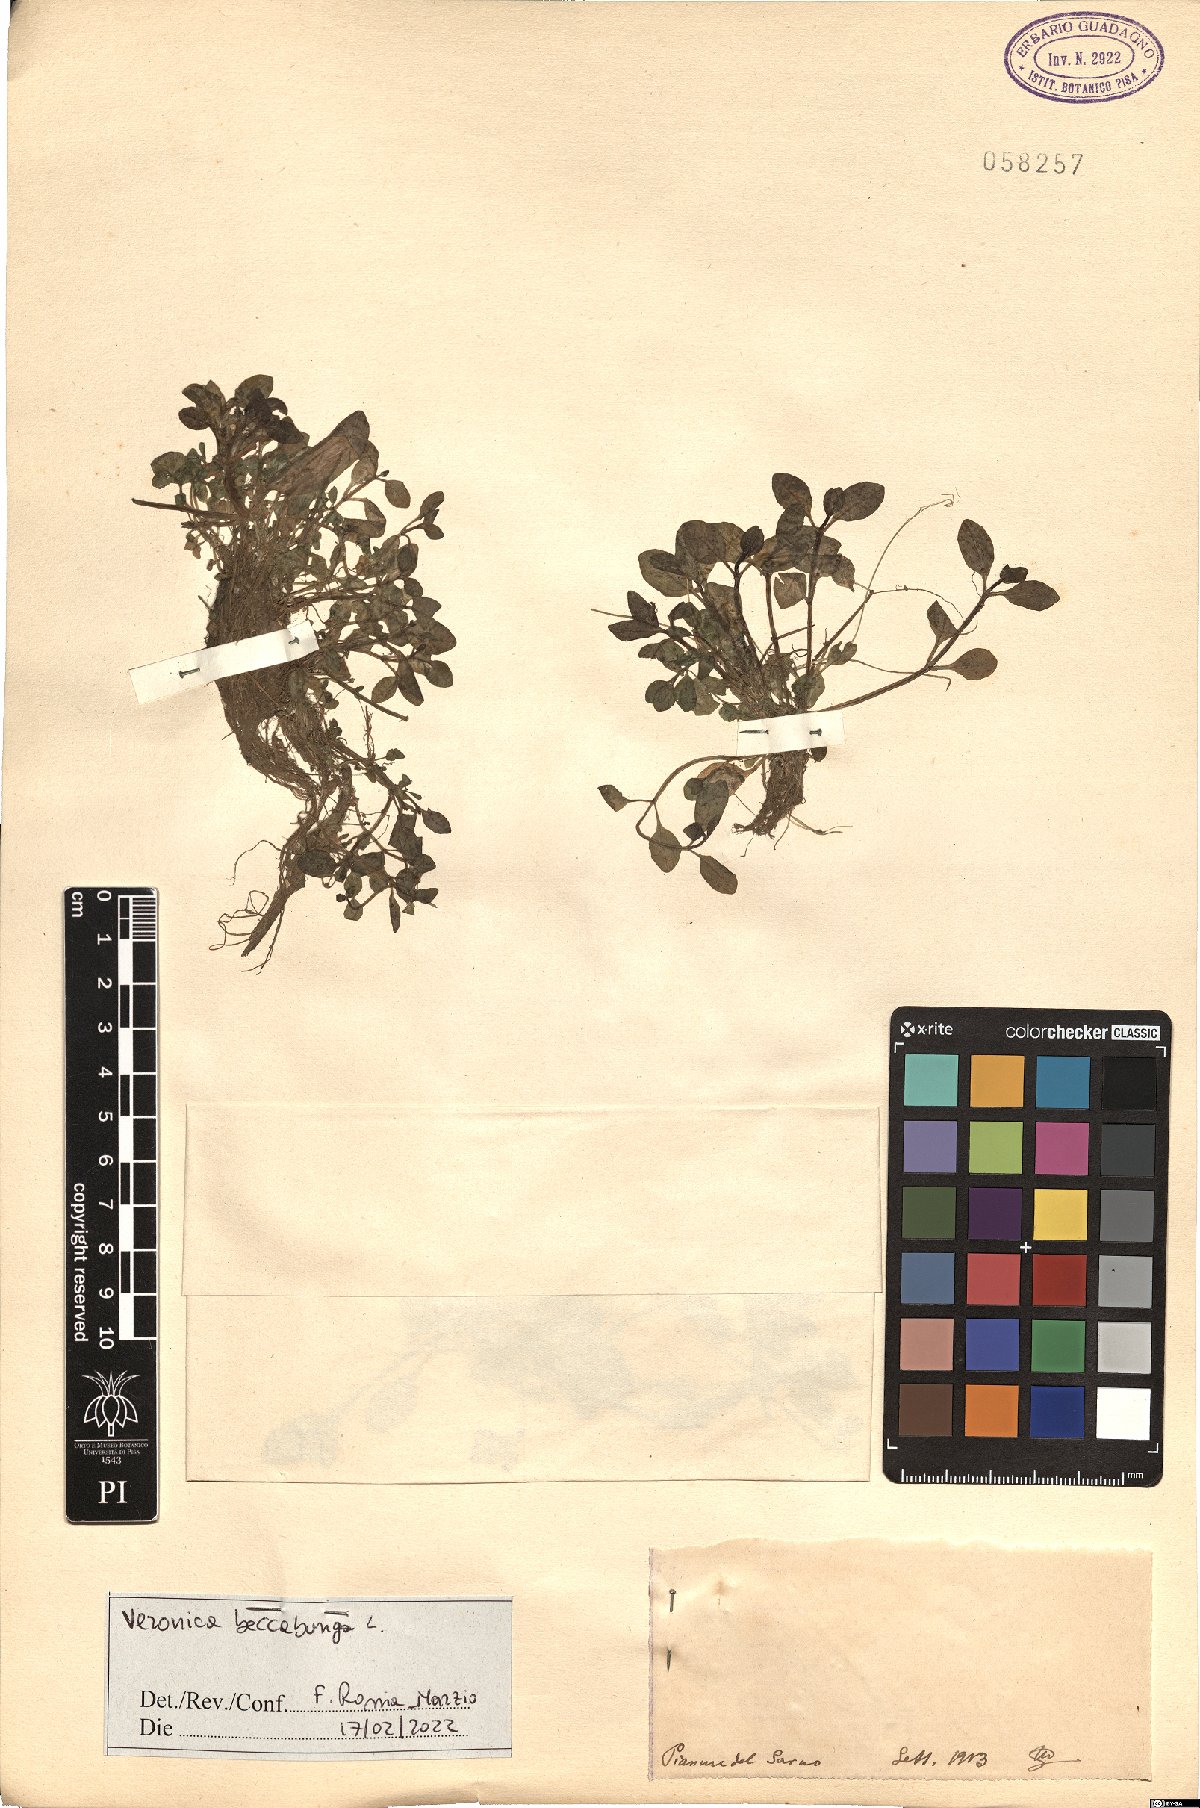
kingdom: Plantae
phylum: Tracheophyta
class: Magnoliopsida
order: Lamiales
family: Plantaginaceae
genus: Veronica
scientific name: Veronica beccabunga
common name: Brooklime
